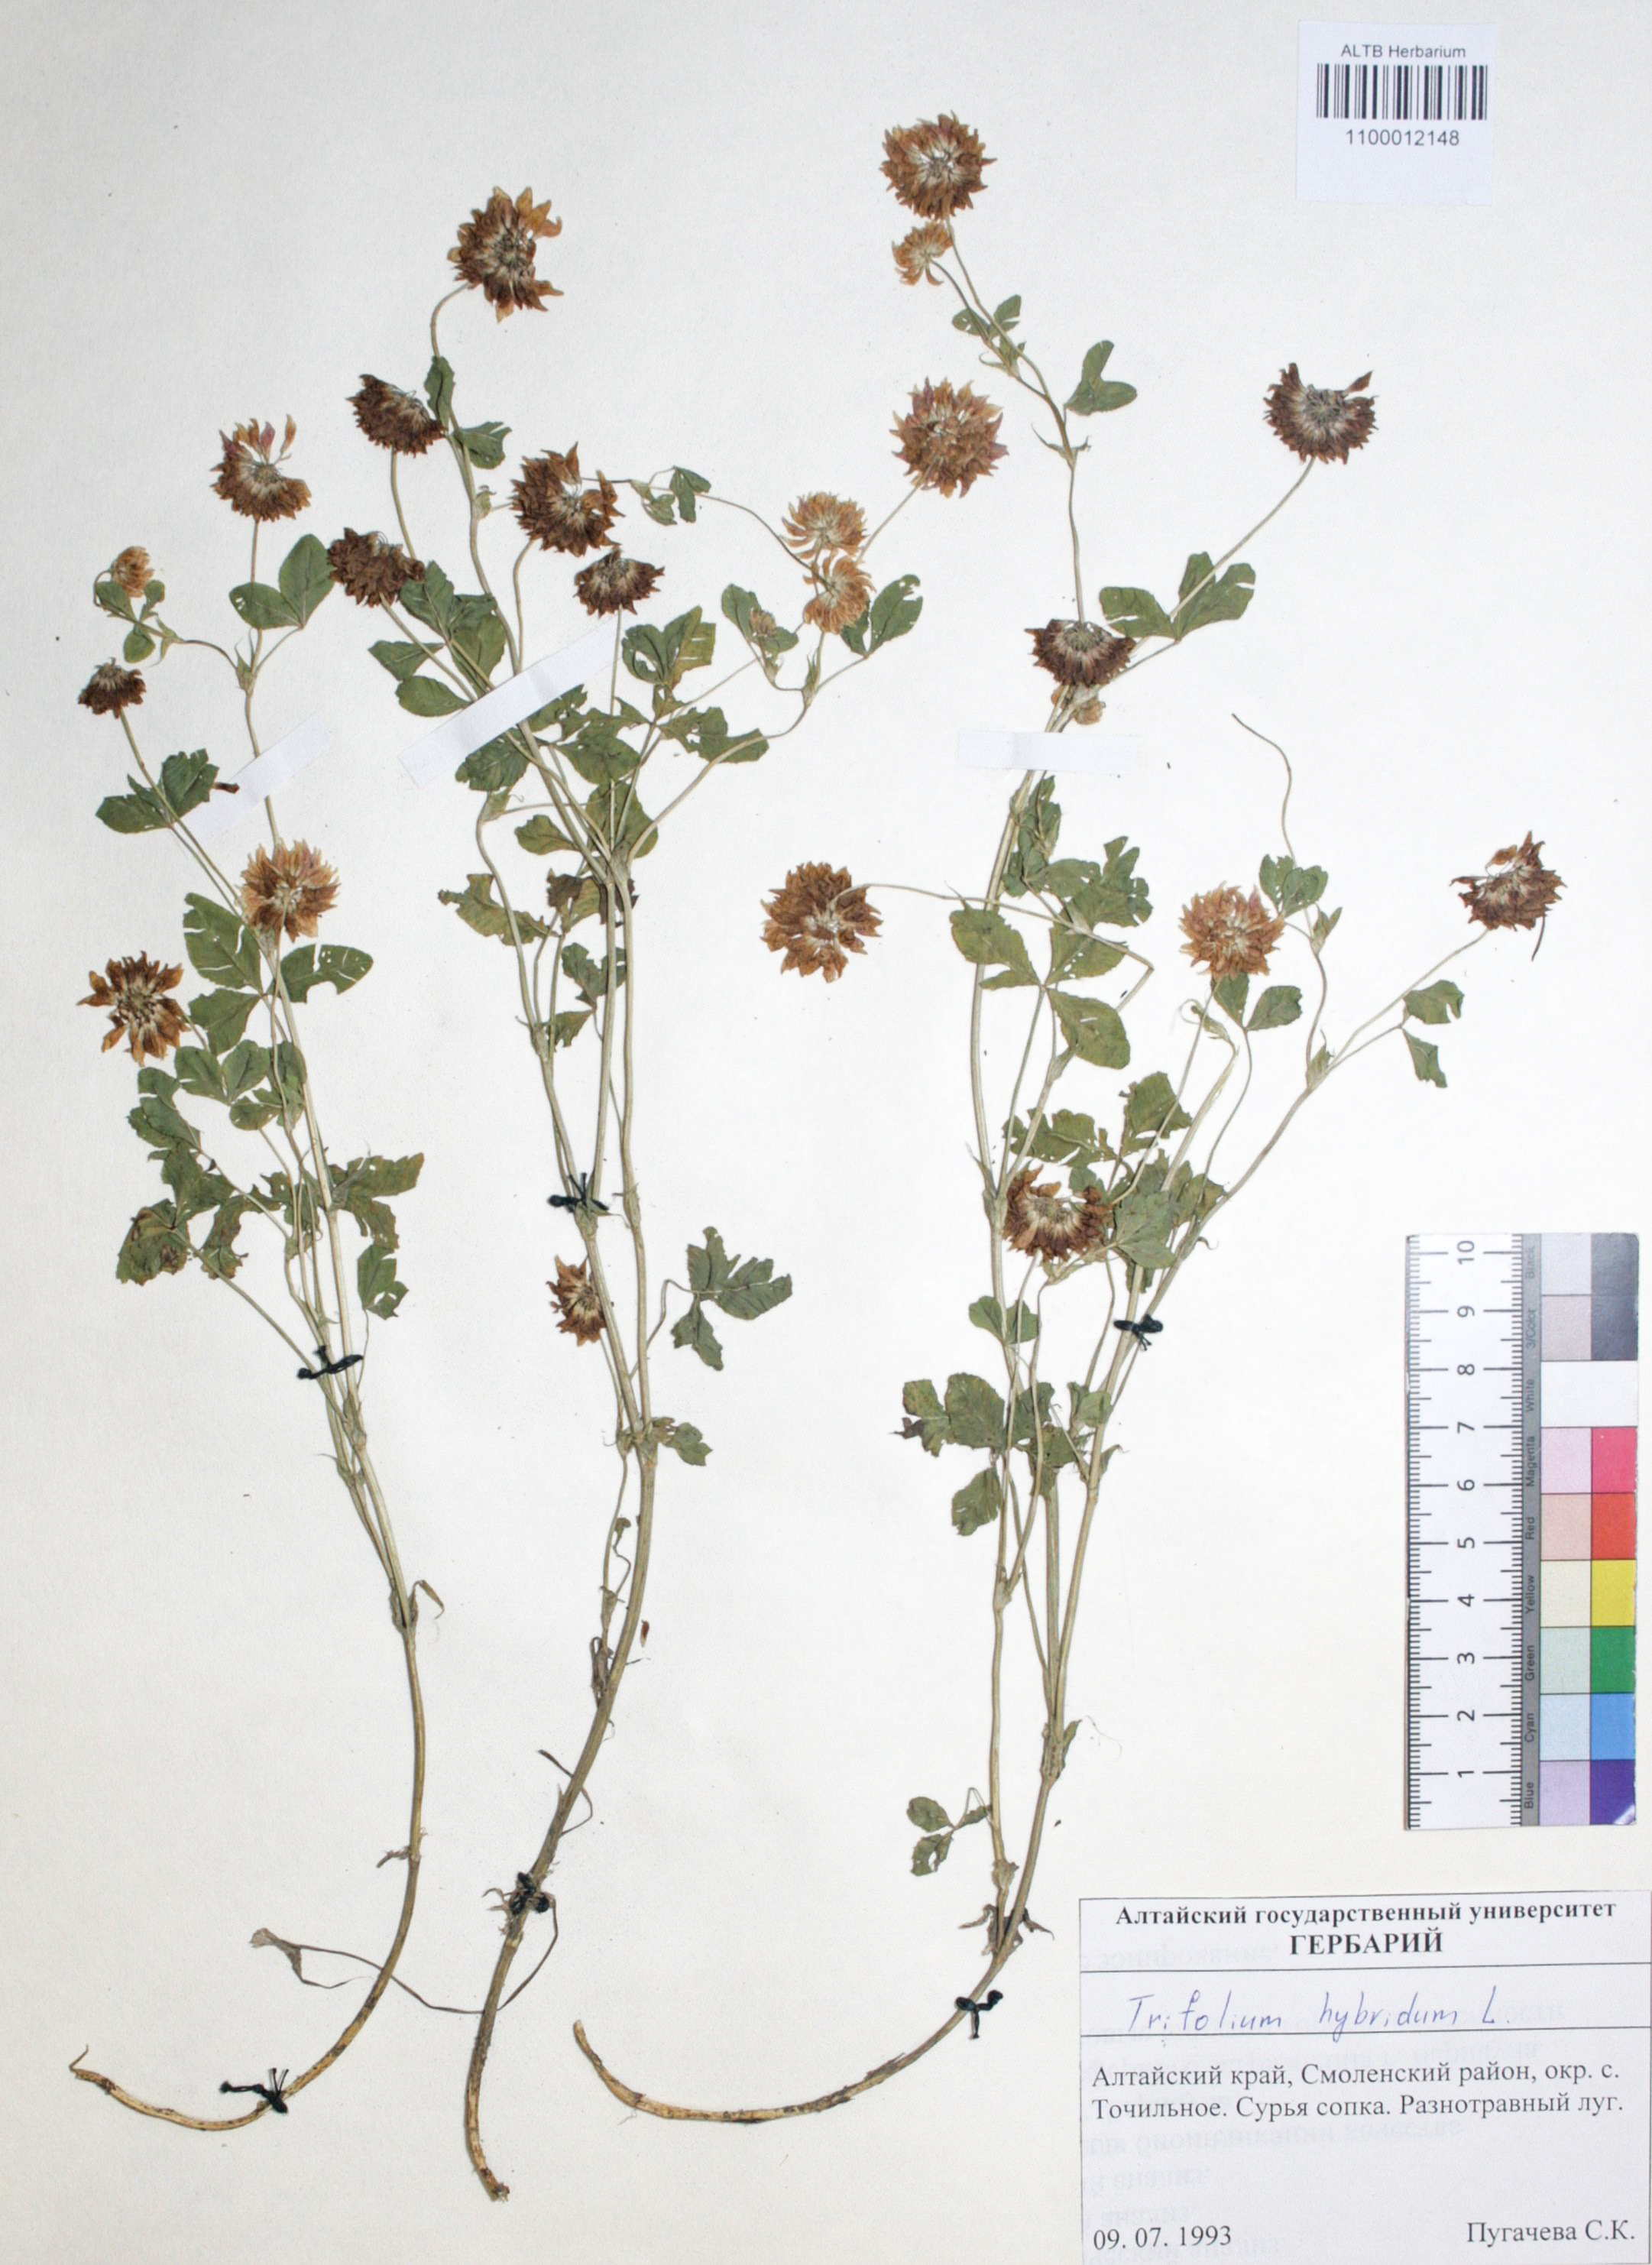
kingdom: Plantae
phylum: Tracheophyta
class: Magnoliopsida
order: Fabales
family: Fabaceae
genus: Trifolium
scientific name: Trifolium hybridum
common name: Alsike clover
